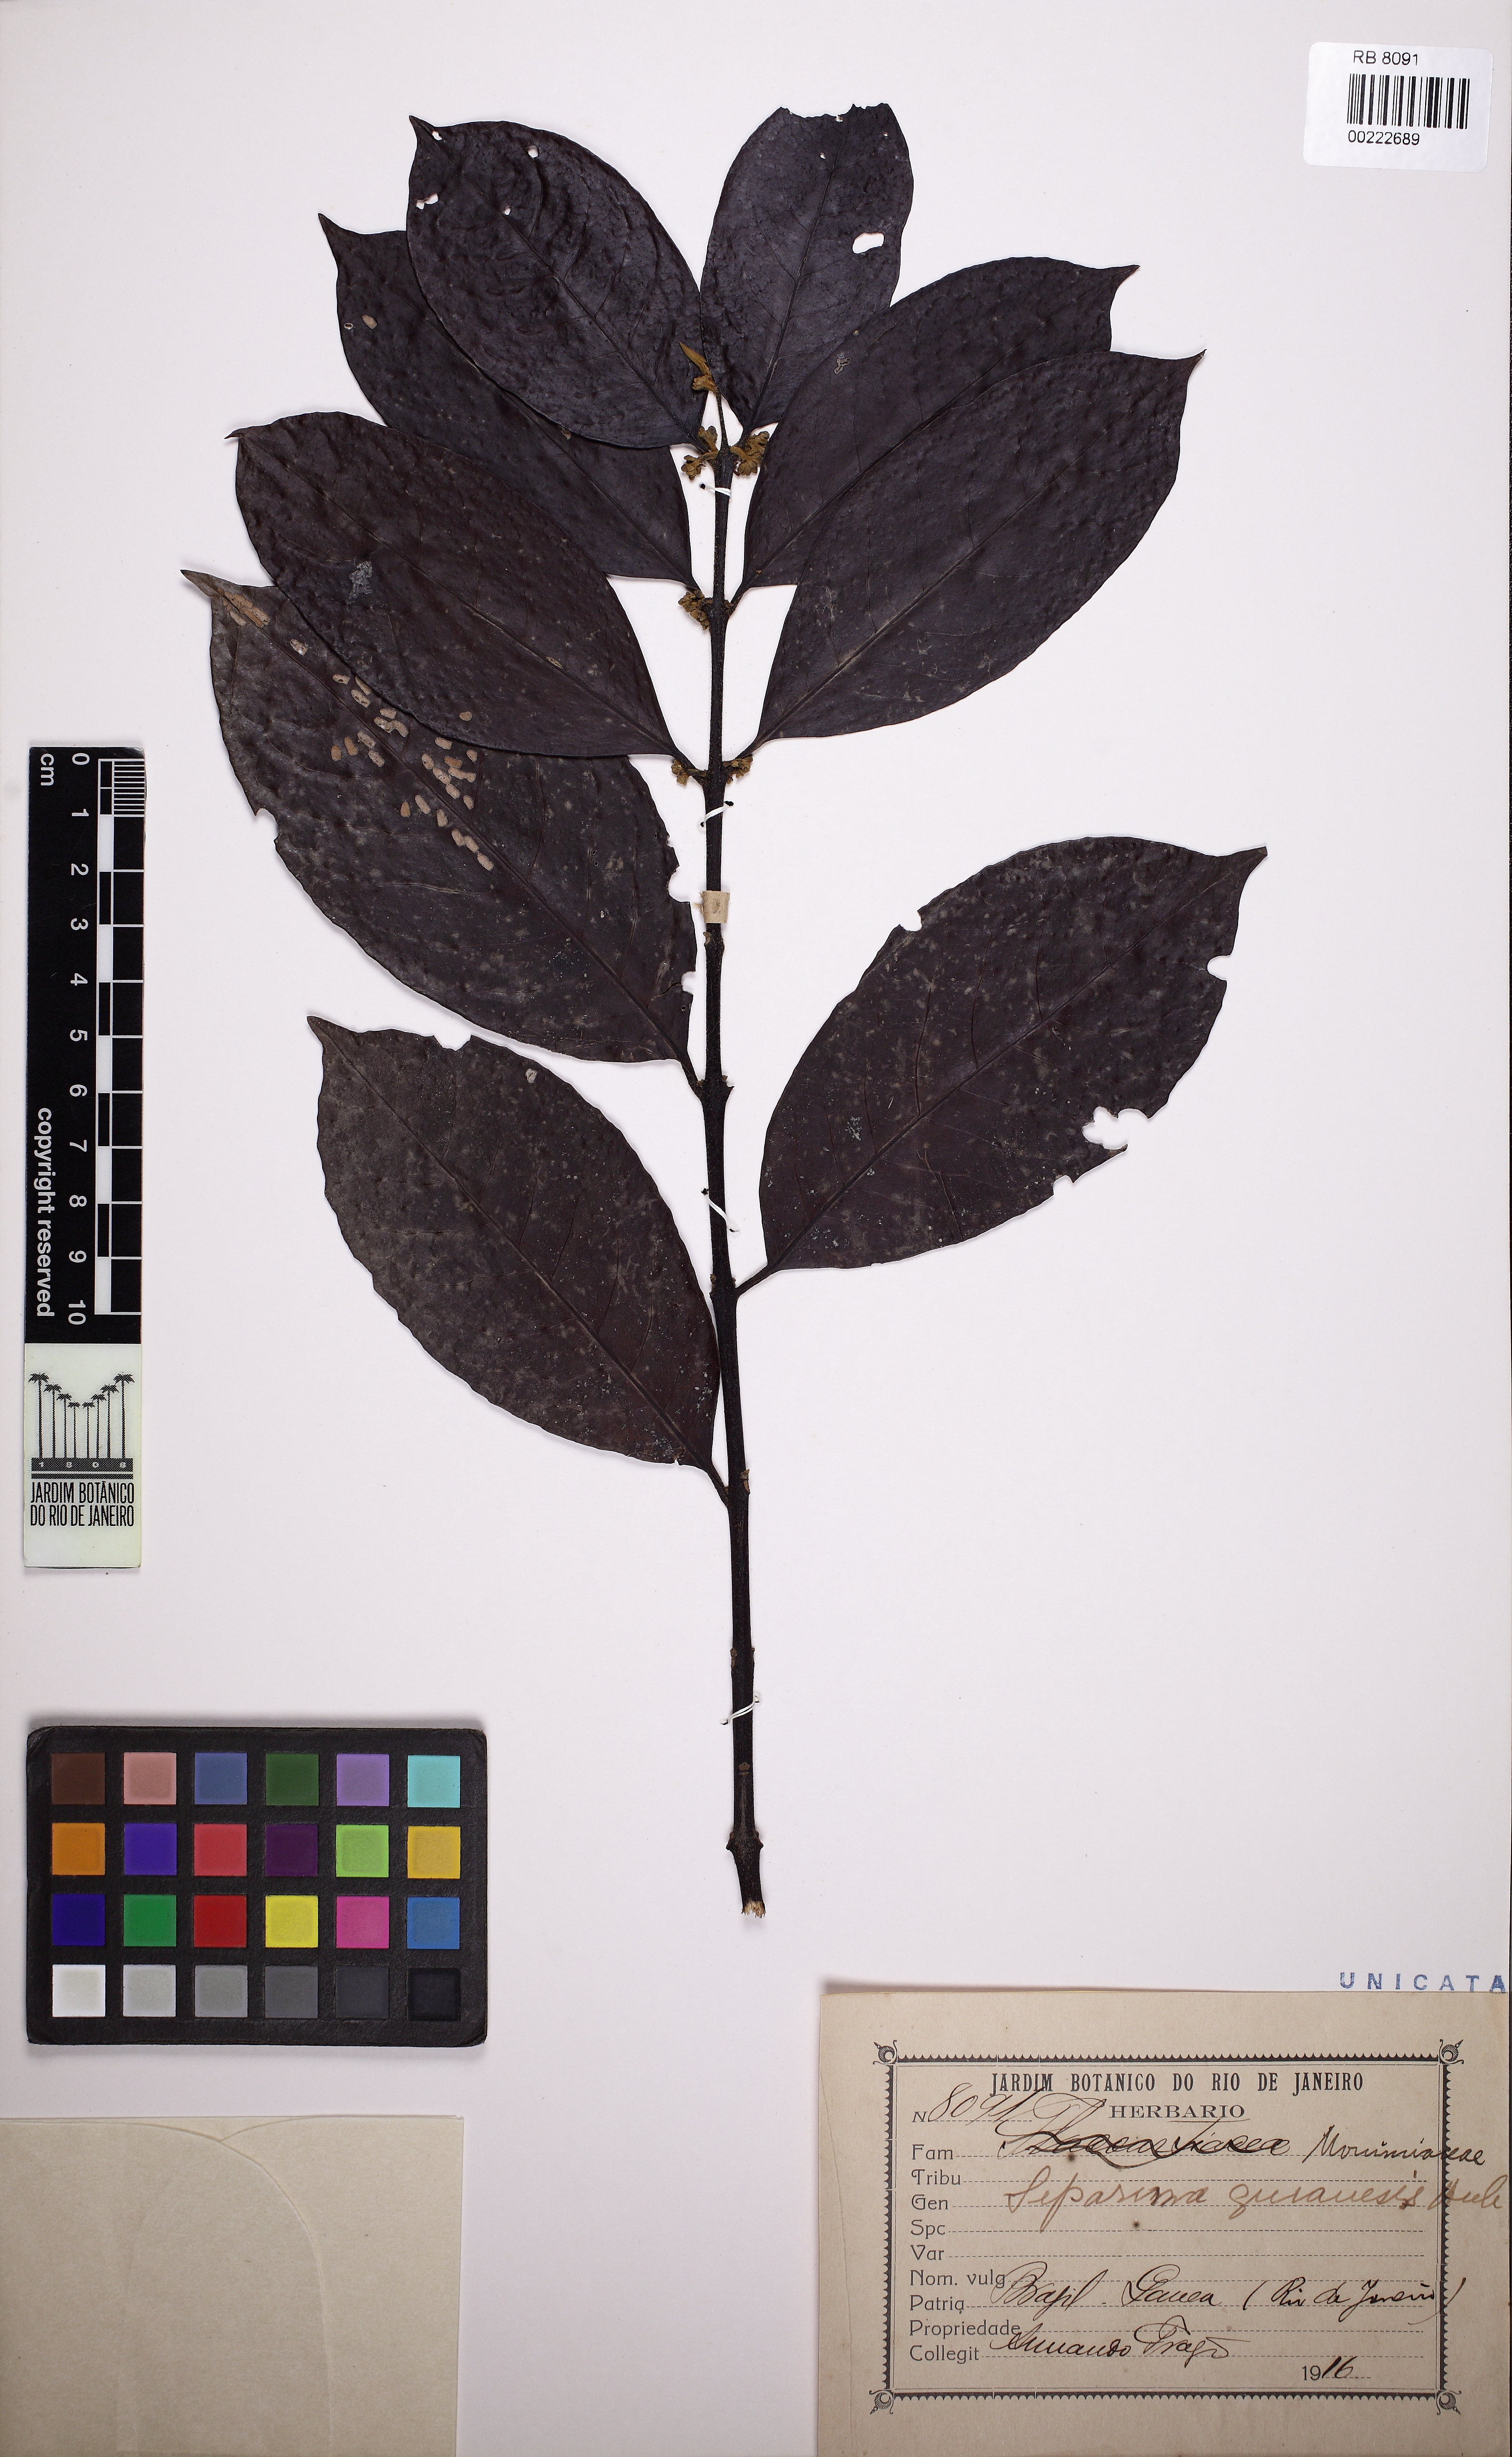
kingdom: Plantae
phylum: Tracheophyta
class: Magnoliopsida
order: Laurales
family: Siparunaceae
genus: Siparuna
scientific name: Siparuna guianensis
